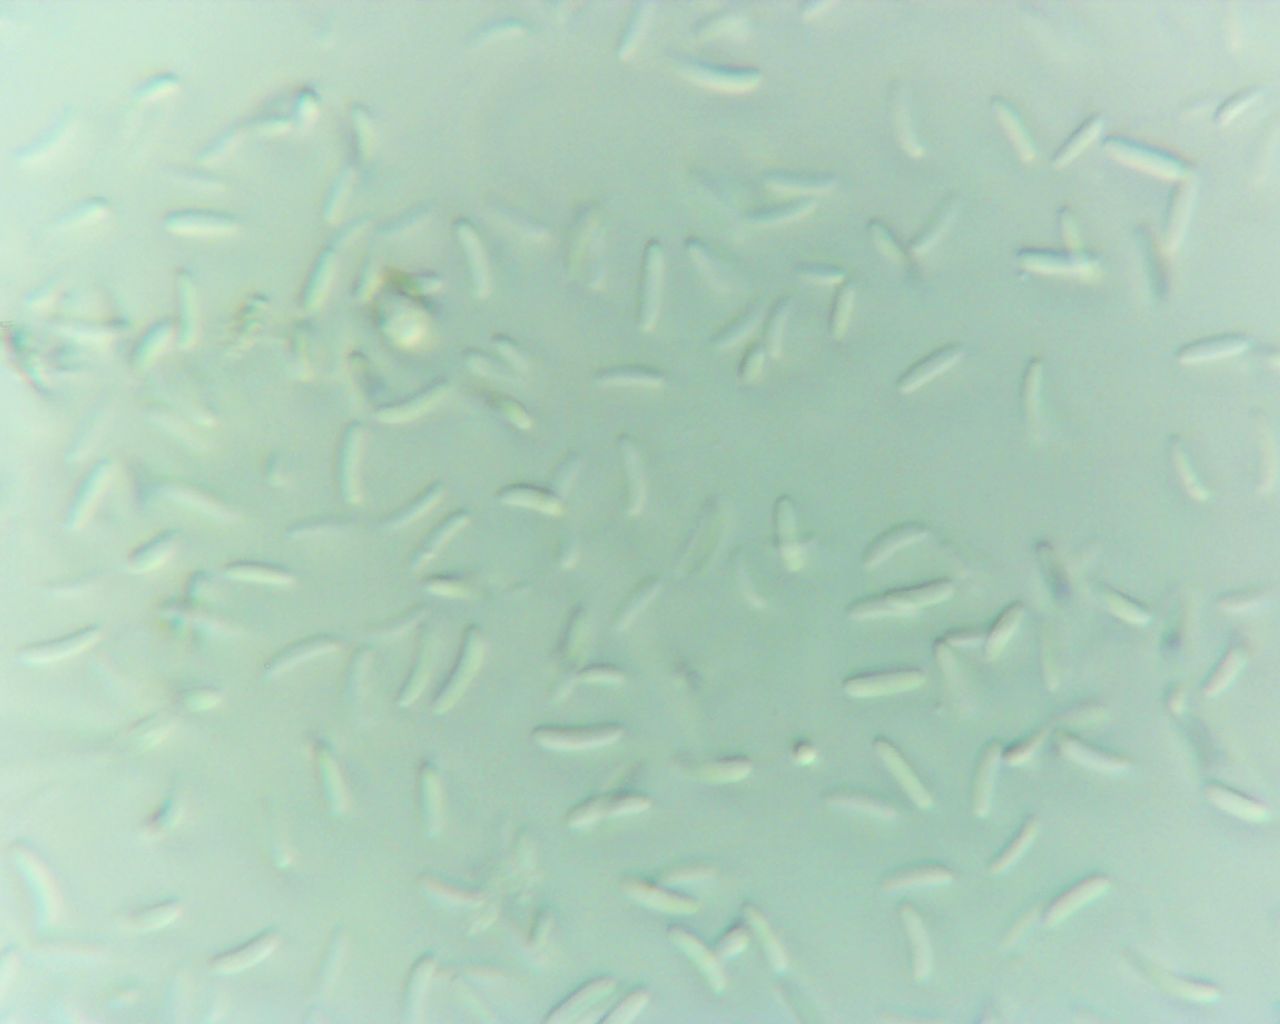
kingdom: Fungi
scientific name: Fungi
